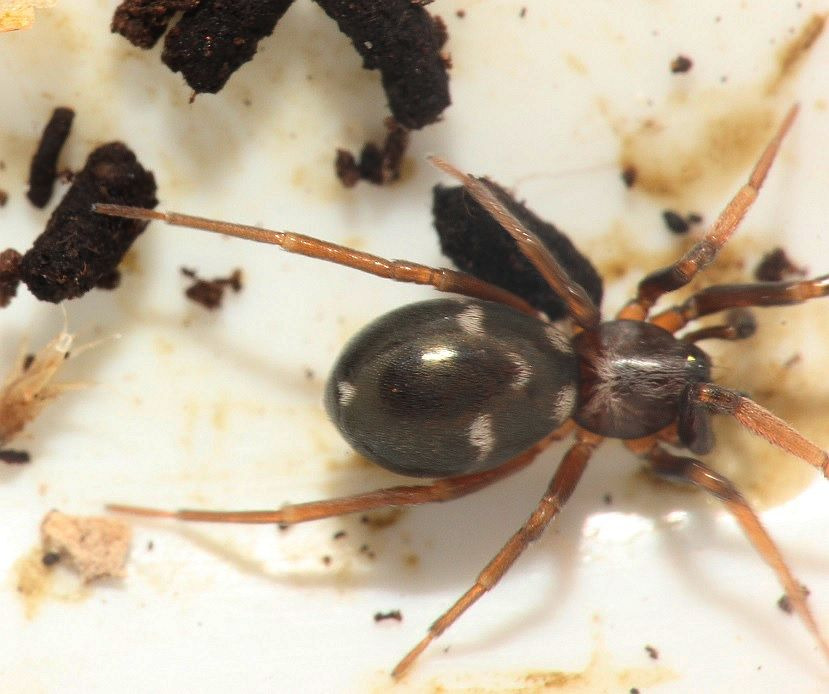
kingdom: Animalia
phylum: Arthropoda
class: Arachnida
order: Araneae
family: Phrurolithidae
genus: Phrurolithus
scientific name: Phrurolithus festivus
